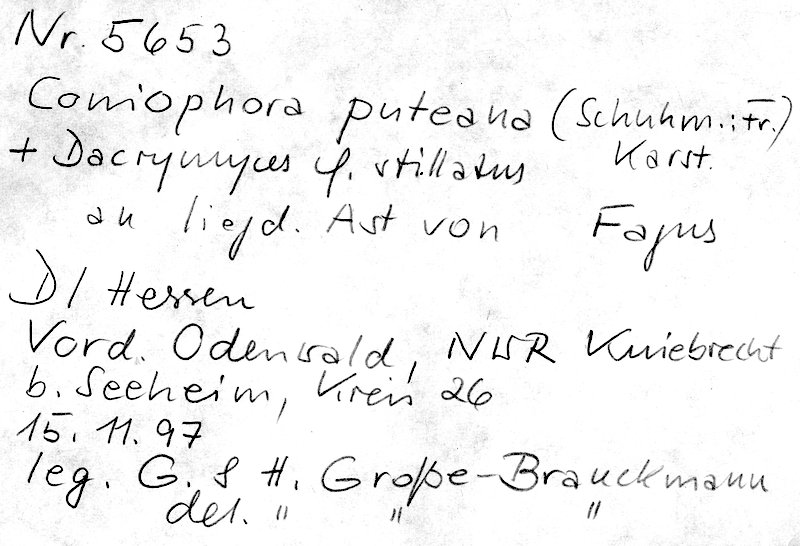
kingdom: Fungi
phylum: Basidiomycota
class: Agaricomycetes
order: Boletales
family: Coniophoraceae
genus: Coniophora
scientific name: Coniophora puteana
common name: Cellar fungus
